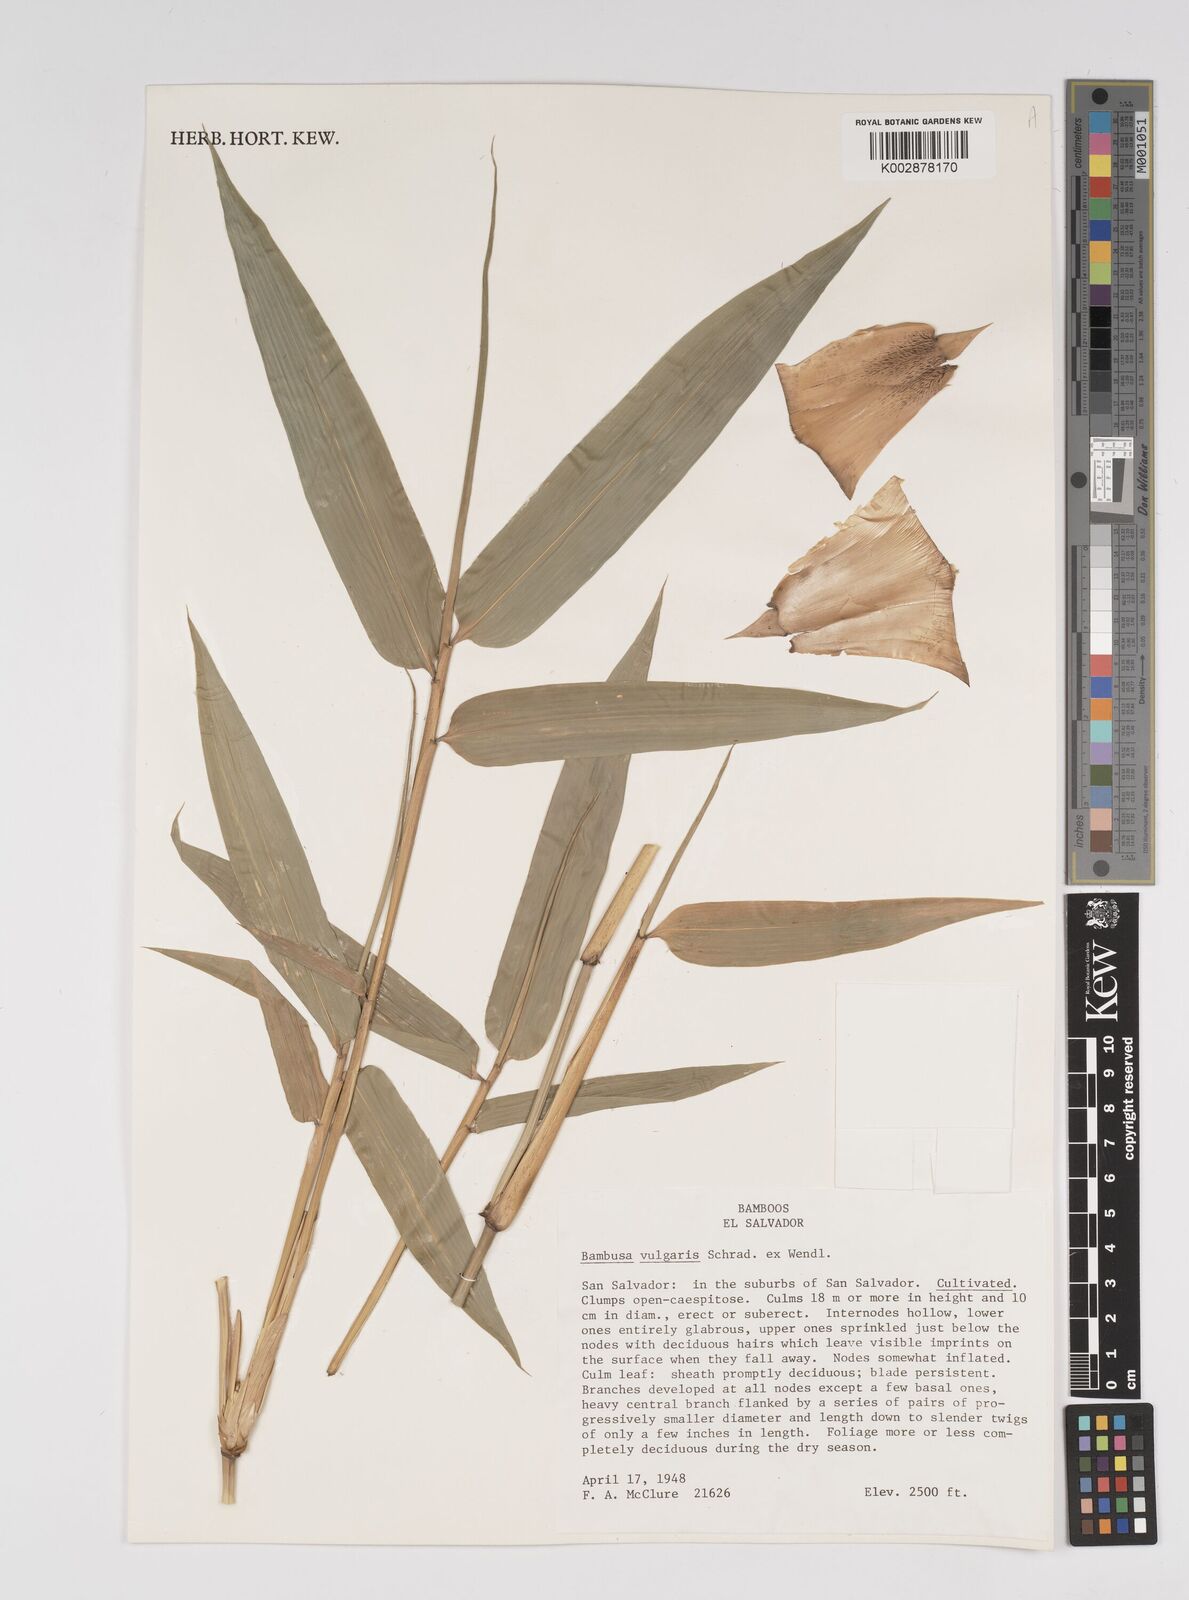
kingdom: Plantae
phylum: Tracheophyta
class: Liliopsida
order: Poales
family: Poaceae
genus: Bambusa
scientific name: Bambusa
